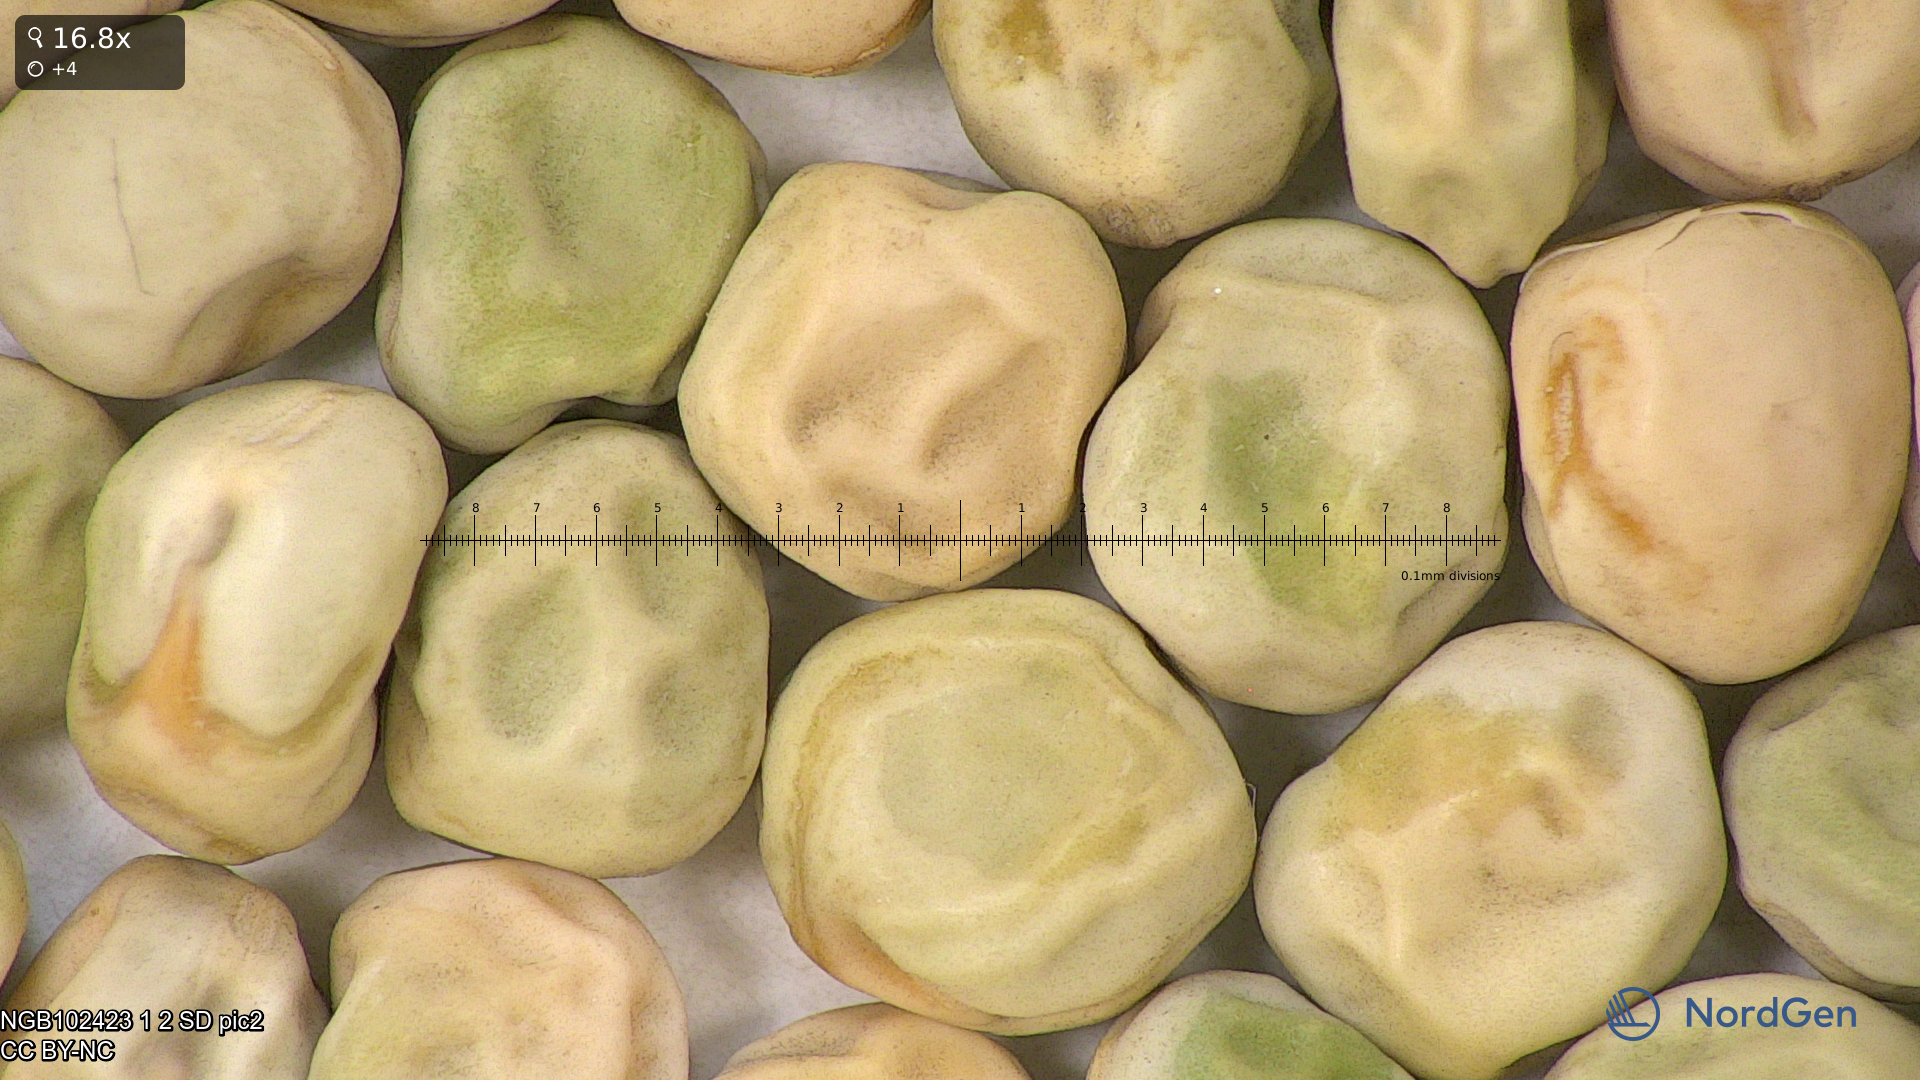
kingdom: Plantae
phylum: Tracheophyta
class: Magnoliopsida
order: Fabales
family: Fabaceae
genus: Lathyrus
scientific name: Lathyrus oleraceus
